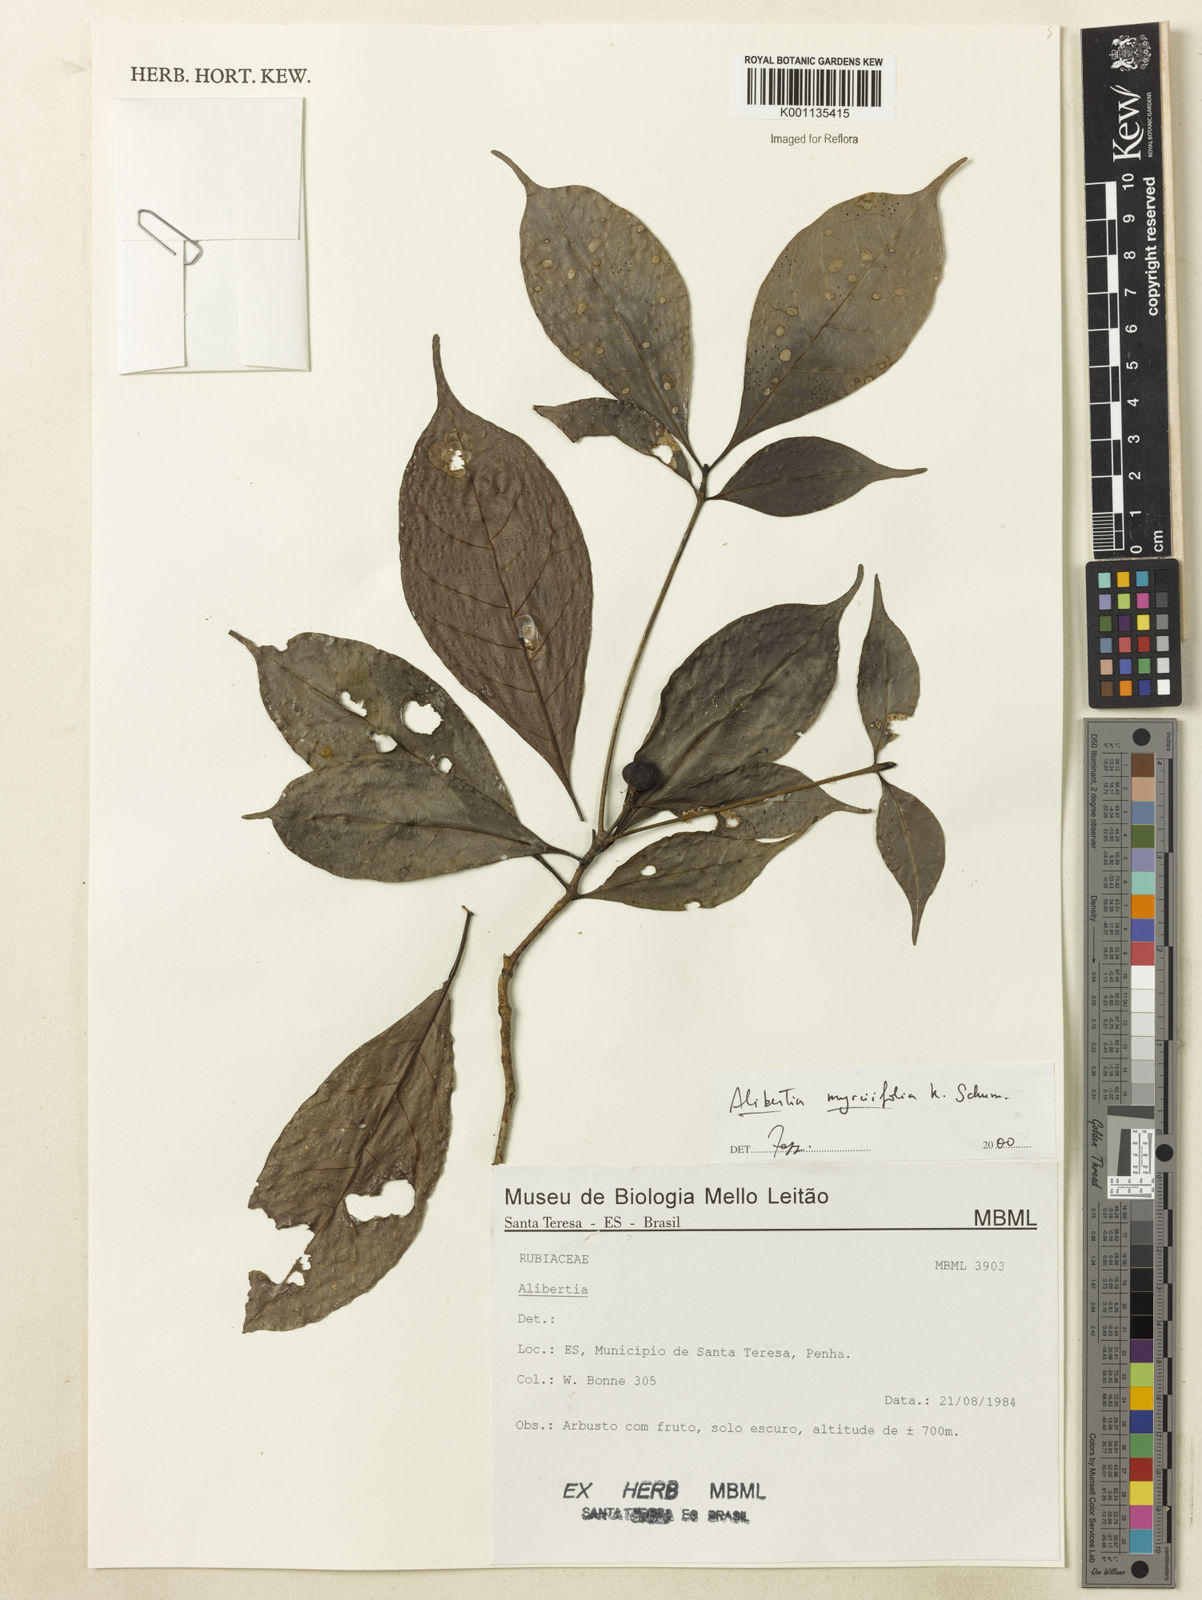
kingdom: Plantae
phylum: Tracheophyta
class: Magnoliopsida
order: Gentianales
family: Rubiaceae
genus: Cordiera
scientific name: Cordiera myrciifolia
